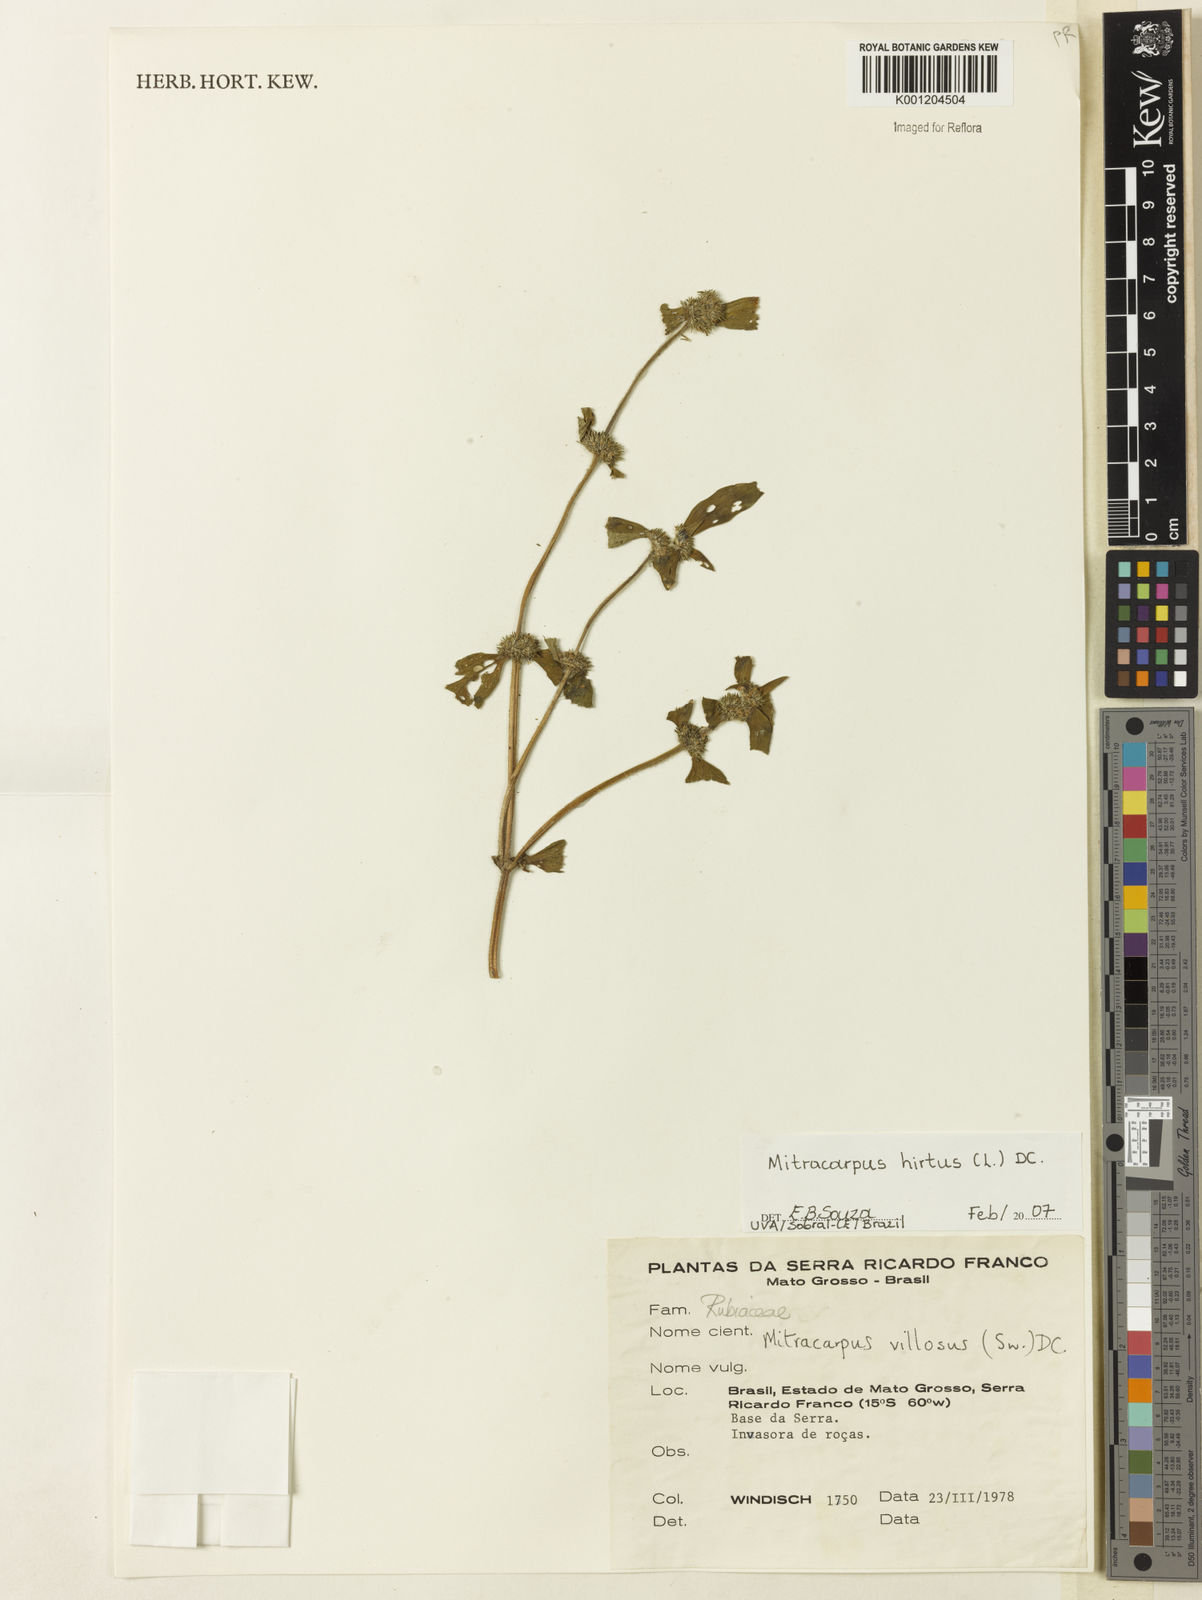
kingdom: Plantae
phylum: Tracheophyta
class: Magnoliopsida
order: Gentianales
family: Rubiaceae
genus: Mitracarpus
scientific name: Mitracarpus hirtus
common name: Tropical girdlepod
